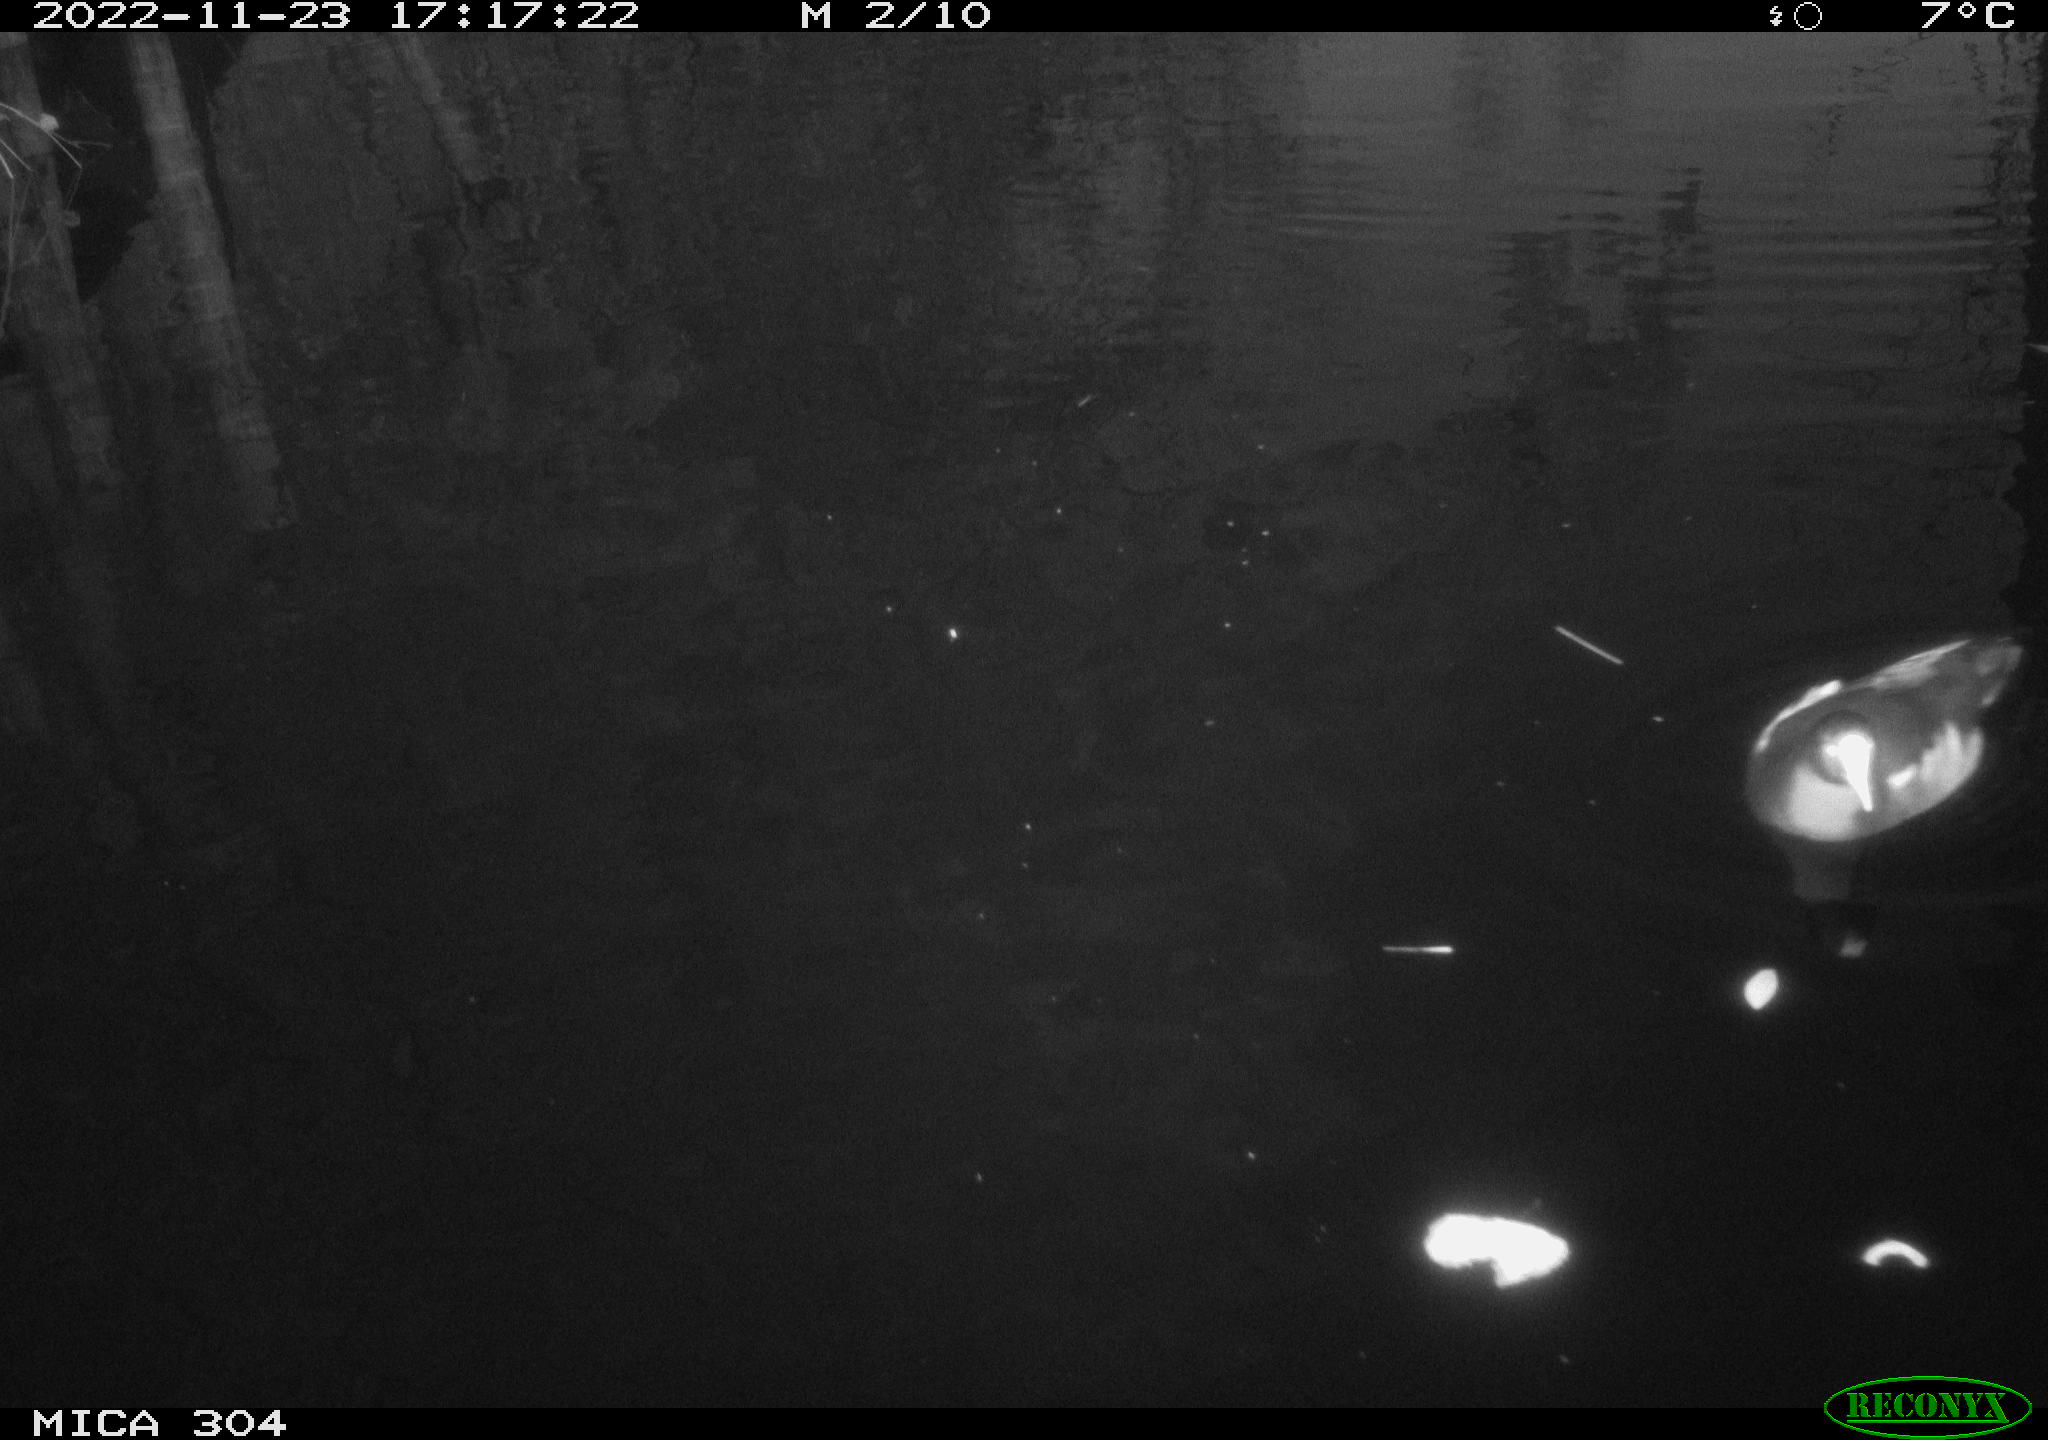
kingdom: Animalia
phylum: Chordata
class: Aves
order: Anseriformes
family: Anatidae
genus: Anas
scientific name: Anas
